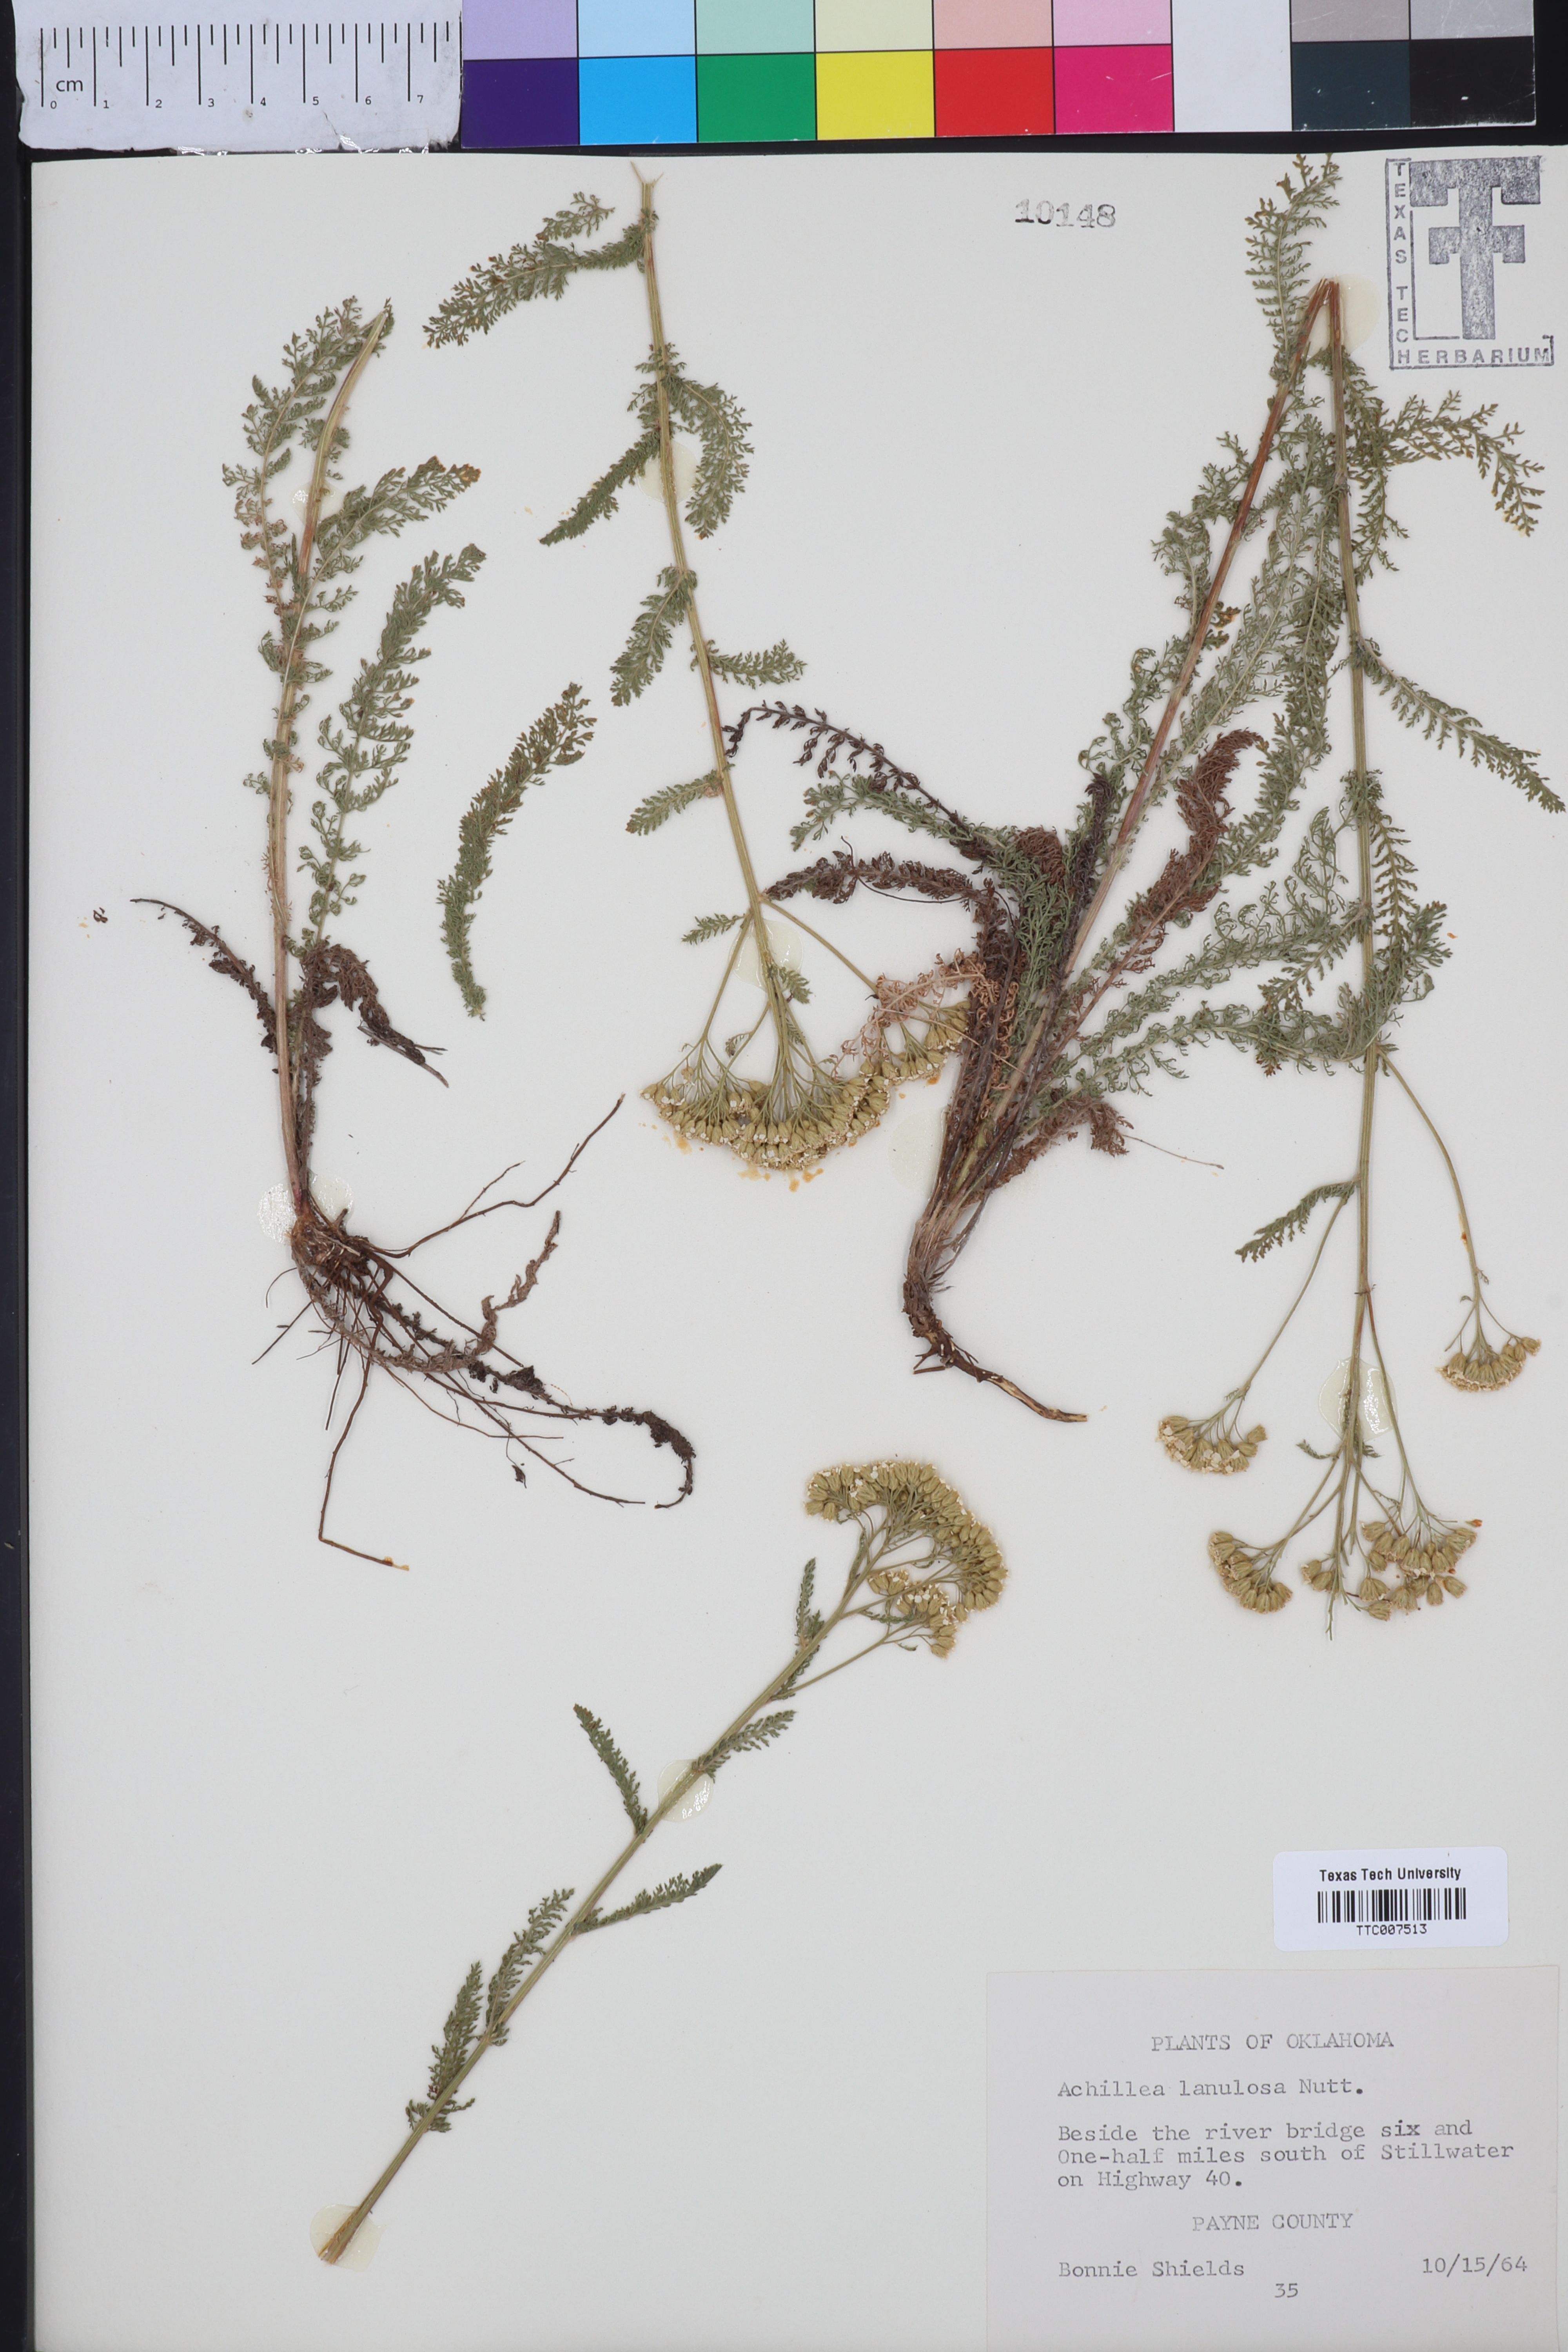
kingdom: Plantae
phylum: Tracheophyta
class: Magnoliopsida
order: Asterales
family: Asteraceae
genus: Achillea
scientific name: Achillea millefolium
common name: Yarrow
